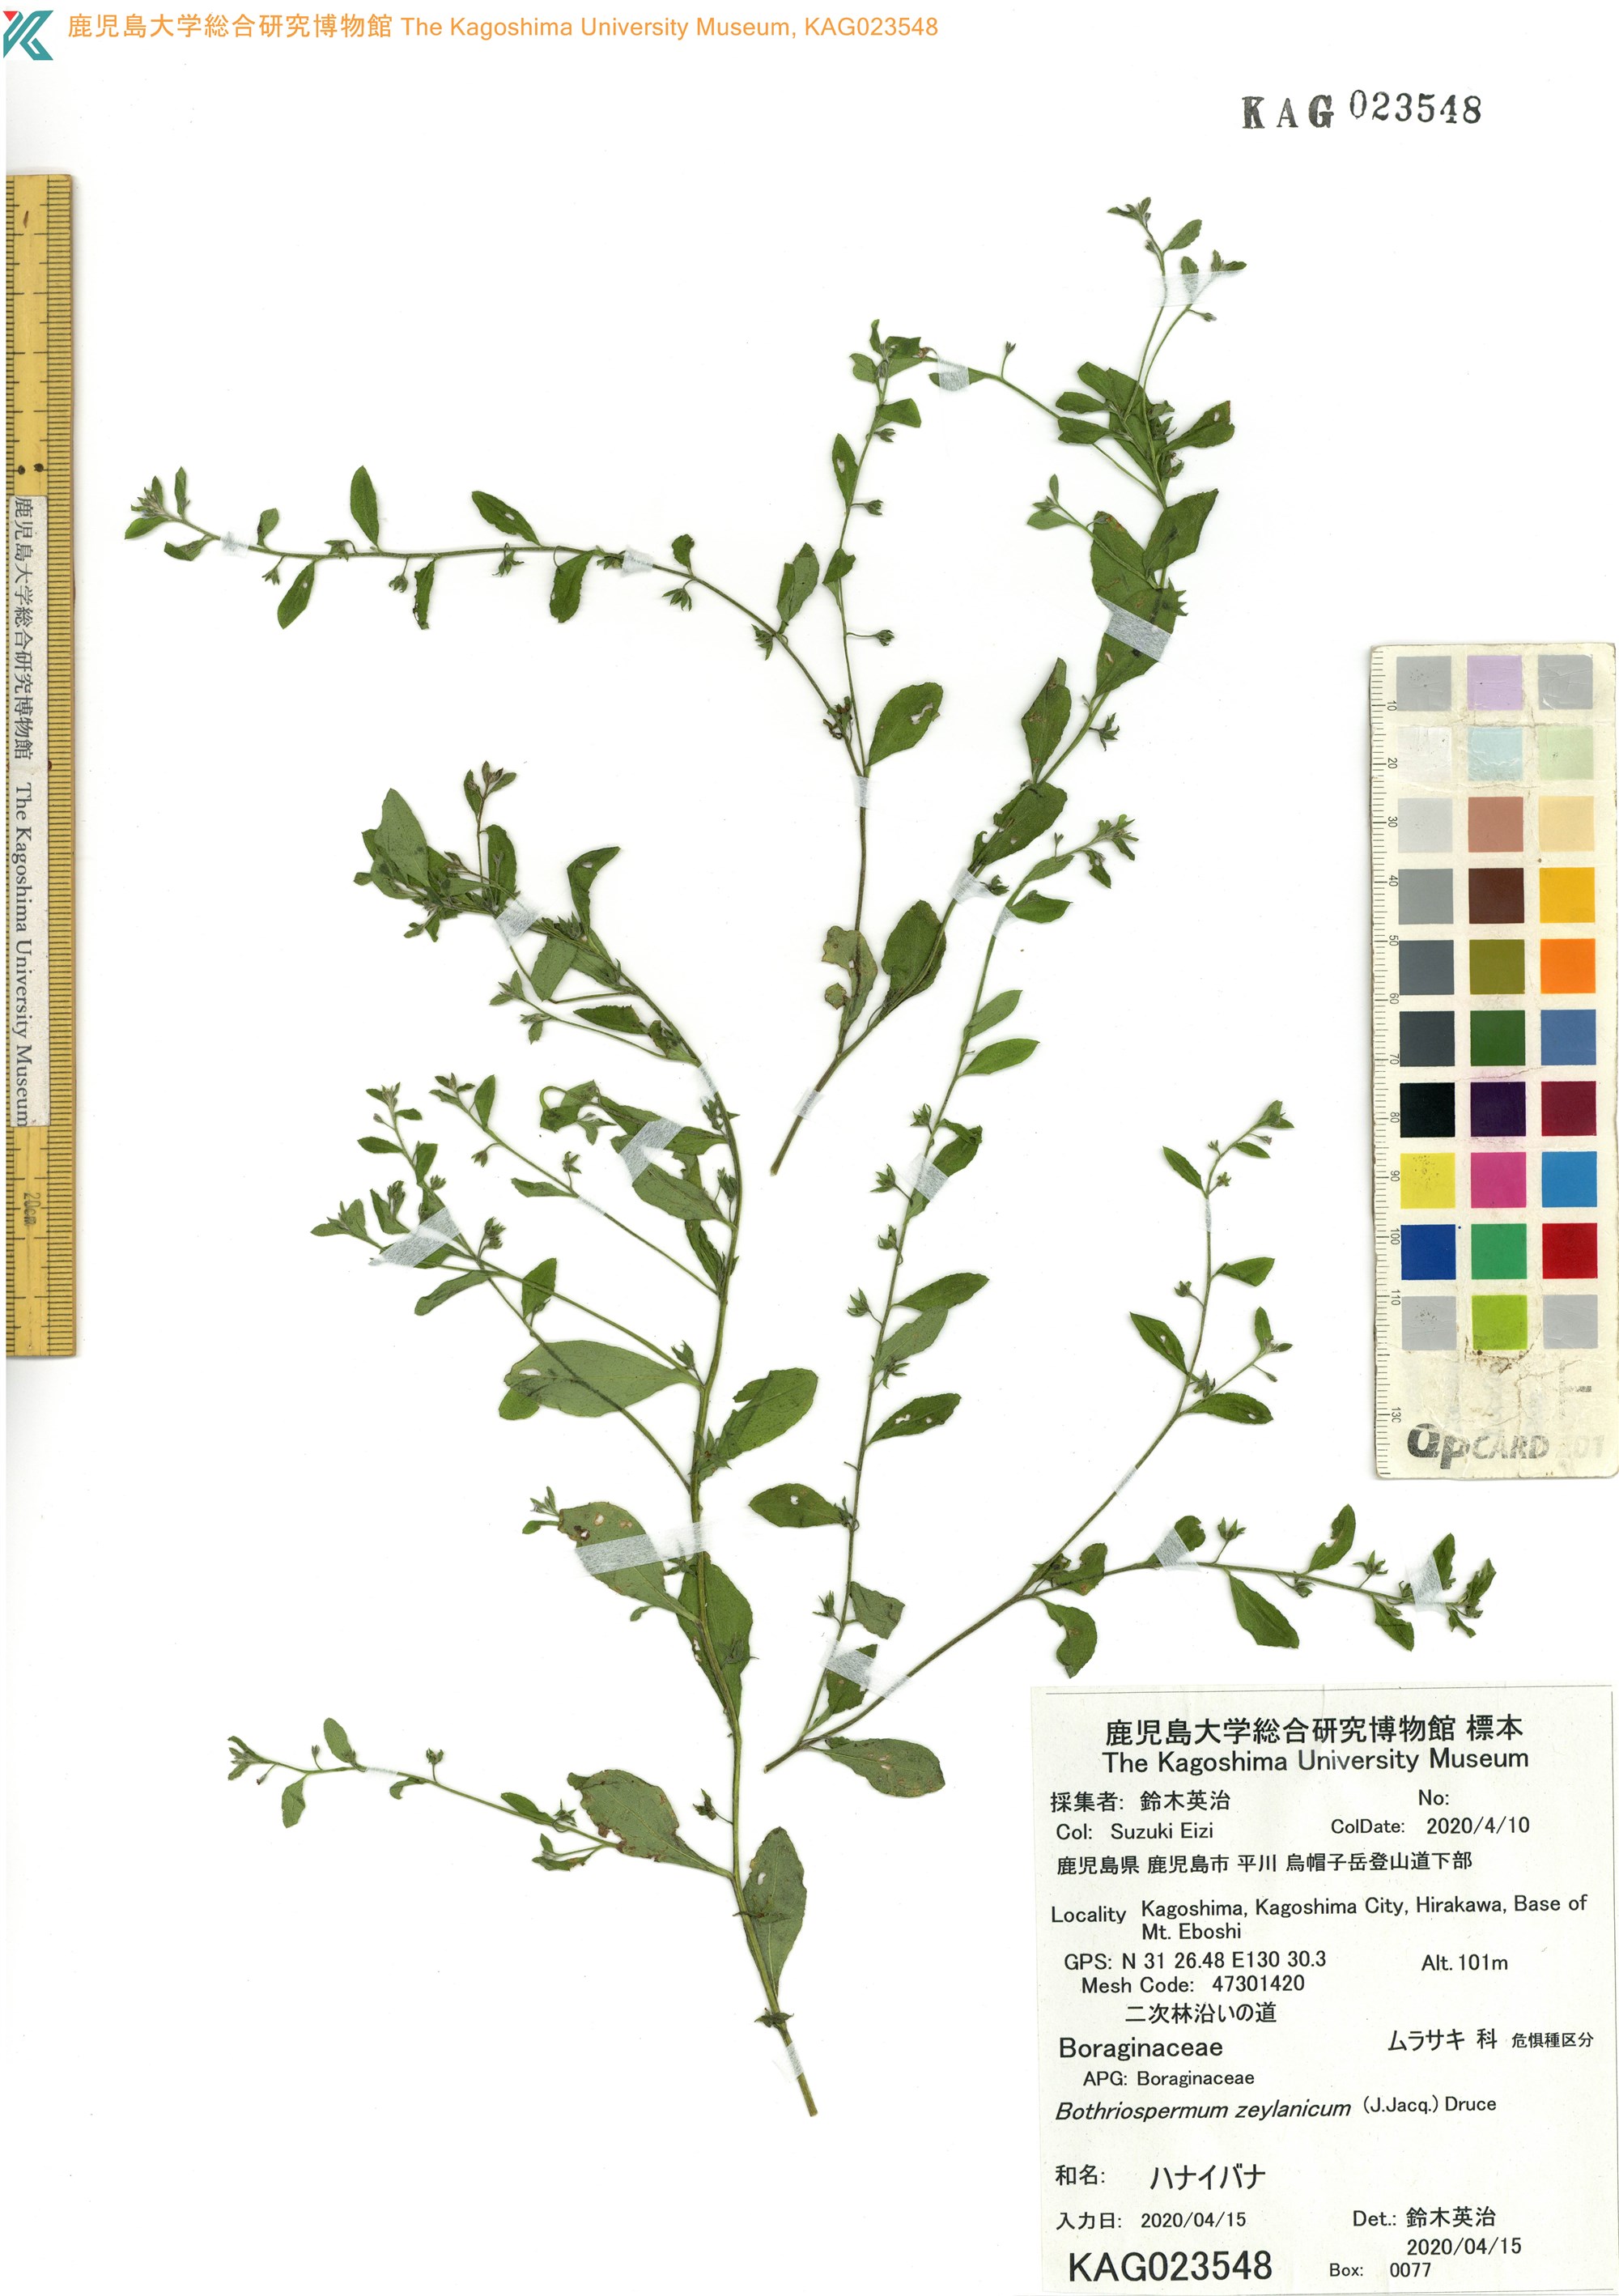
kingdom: Plantae
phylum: Tracheophyta
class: Magnoliopsida
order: Boraginales
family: Boraginaceae
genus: Bothriospermum
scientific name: Bothriospermum zeylanicum
